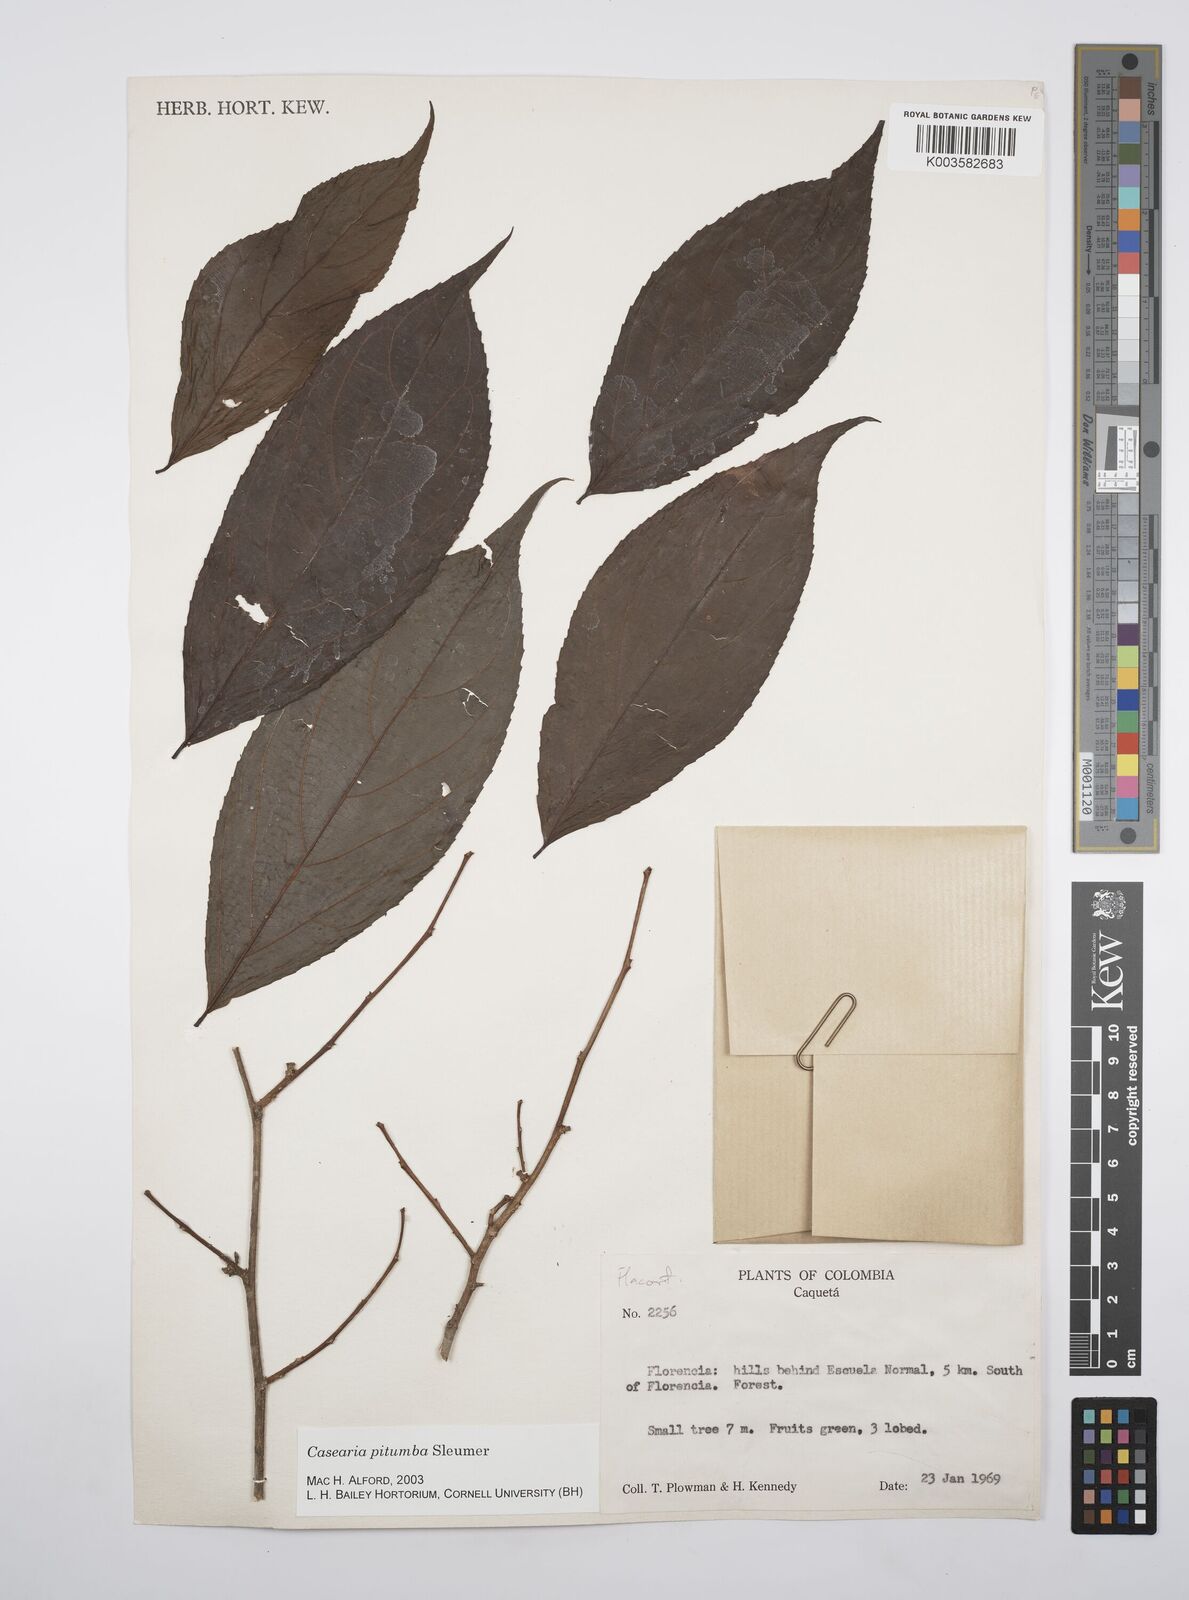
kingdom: Plantae
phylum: Tracheophyta
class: Magnoliopsida
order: Malpighiales
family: Salicaceae
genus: Casearia
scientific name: Casearia pitumba
